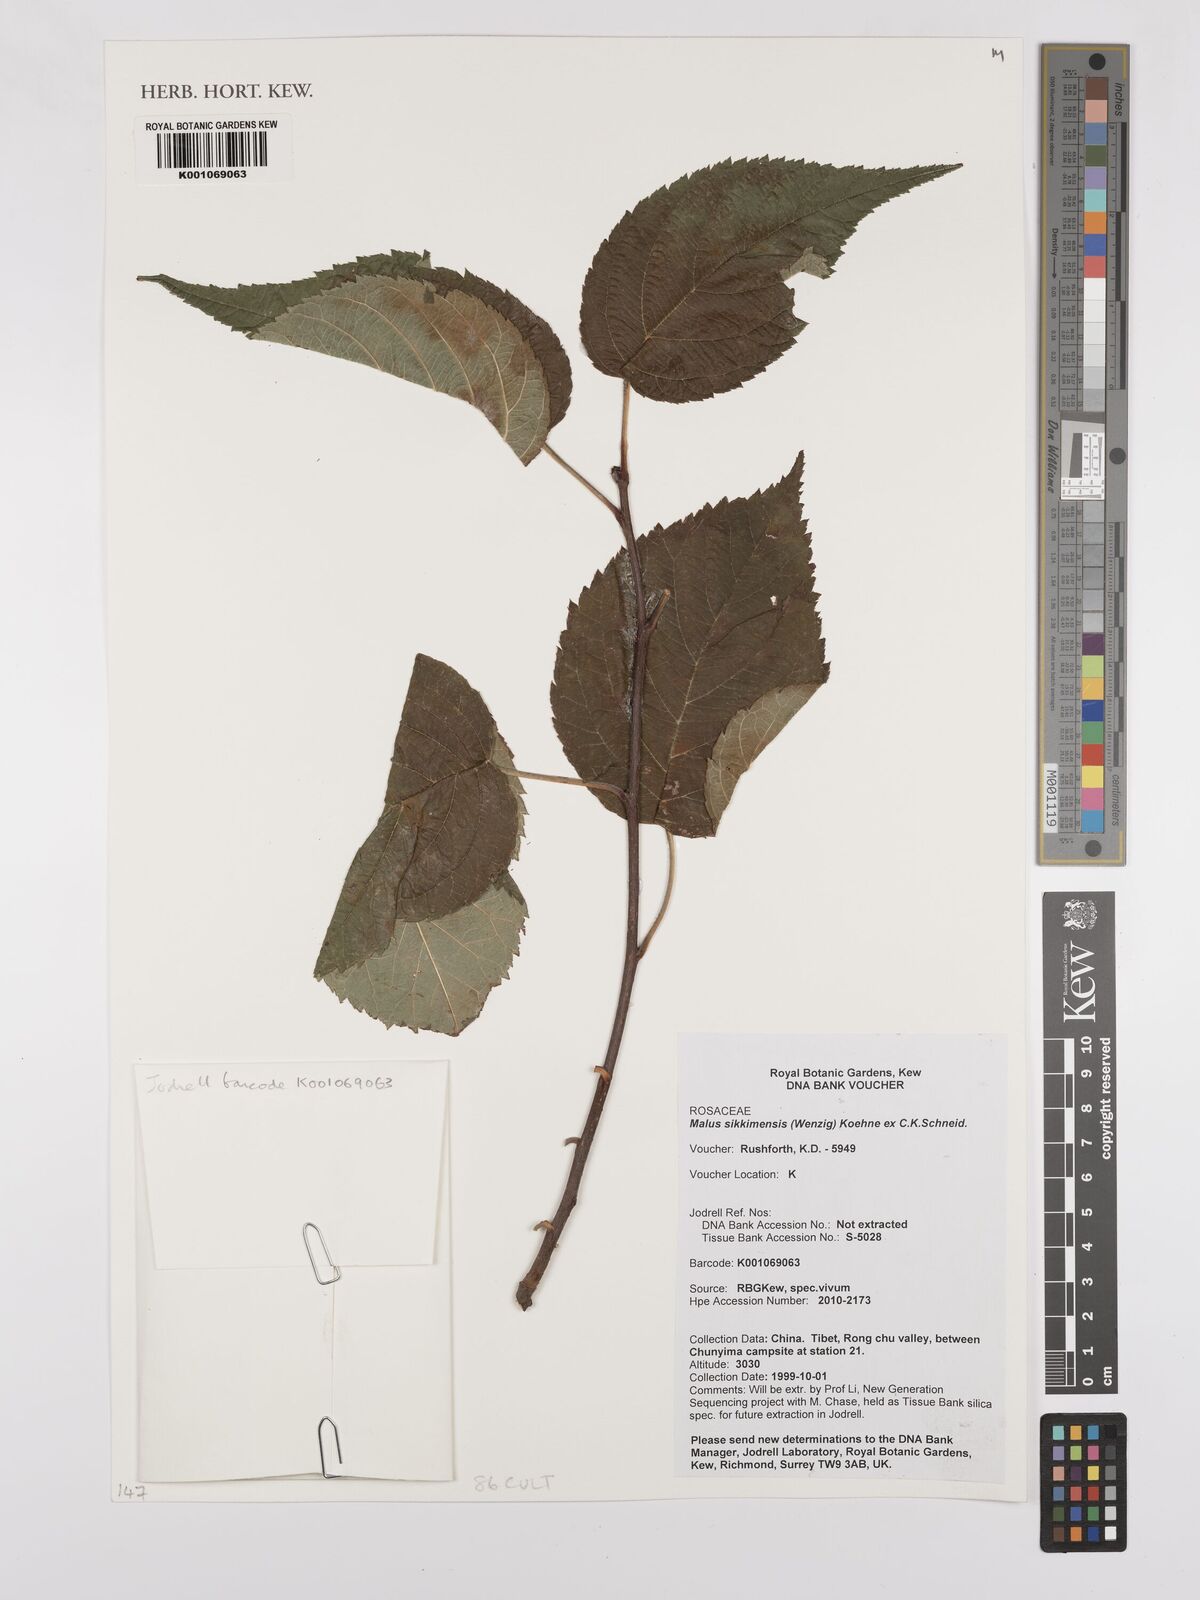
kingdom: Plantae
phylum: Tracheophyta
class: Magnoliopsida
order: Rosales
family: Rosaceae
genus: Malus
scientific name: Malus sikkimensis
